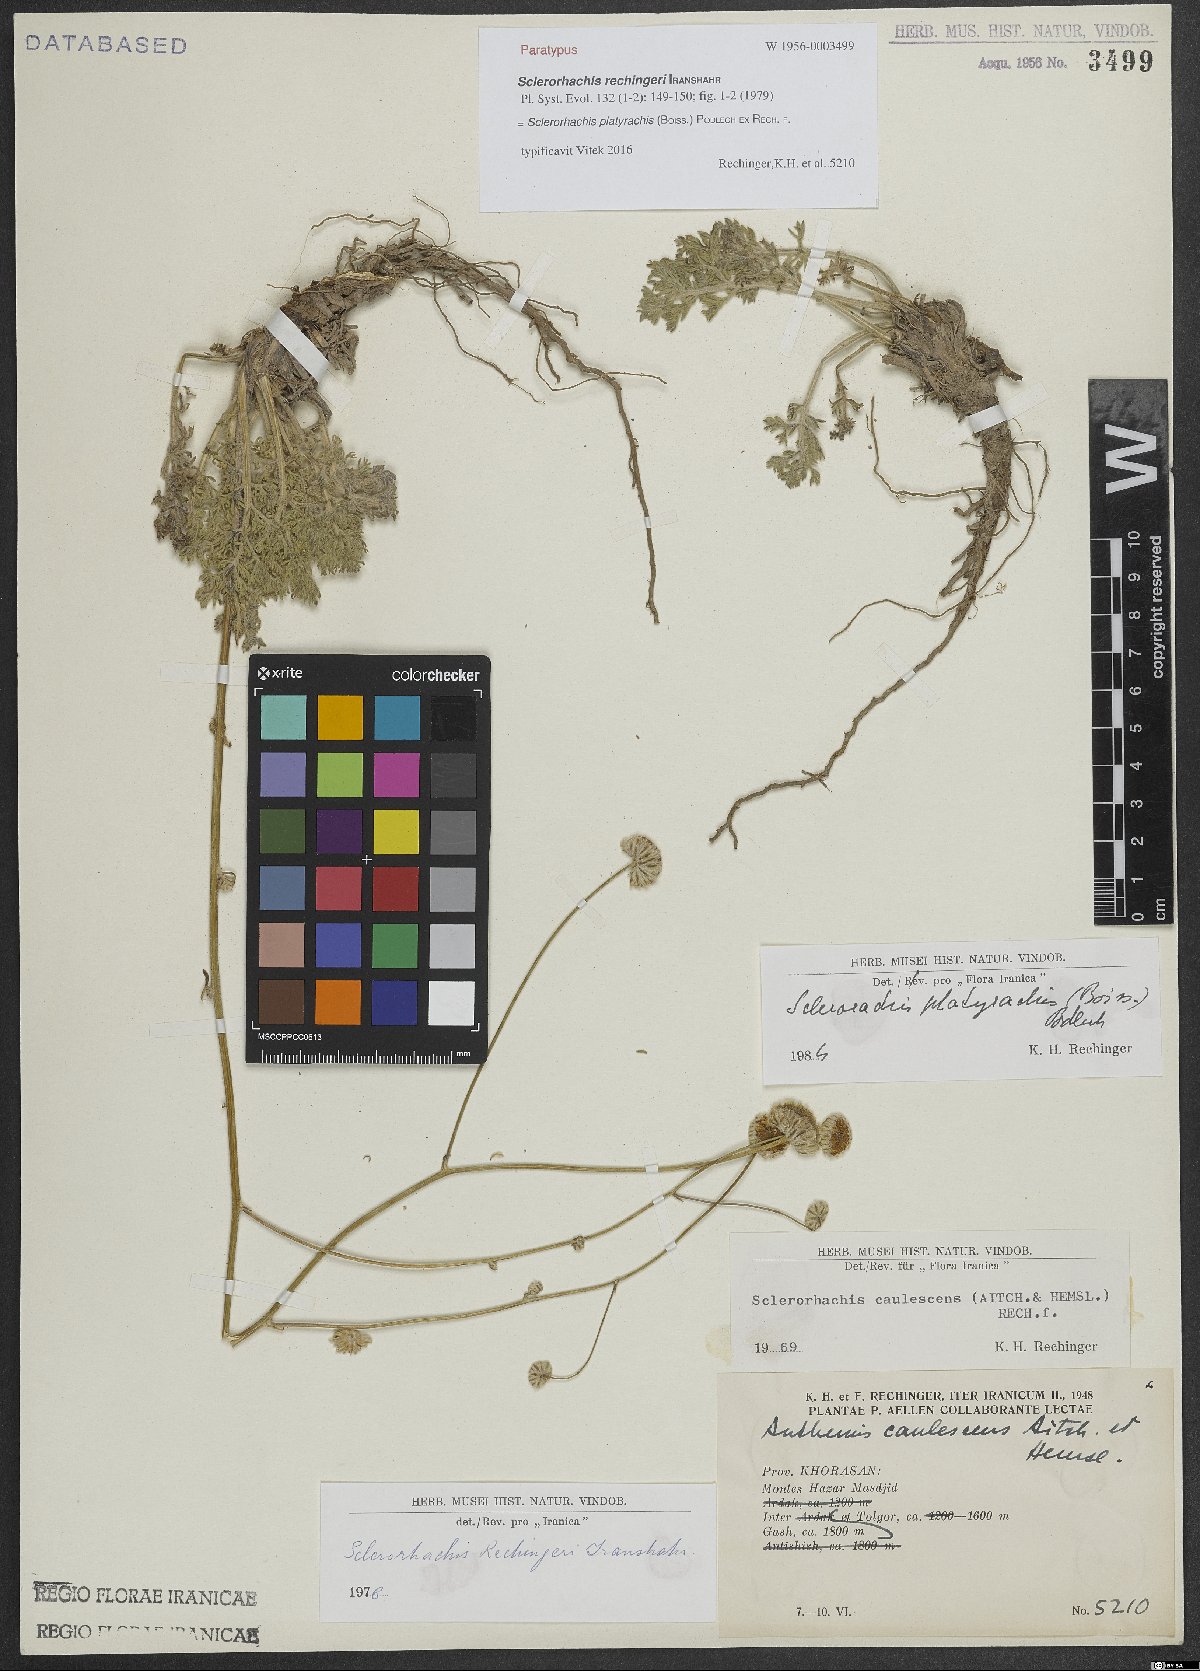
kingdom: Plantae
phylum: Tracheophyta
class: Magnoliopsida
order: Asterales
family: Asteraceae
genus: Sclerorhachis
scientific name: Sclerorhachis platyrachis
